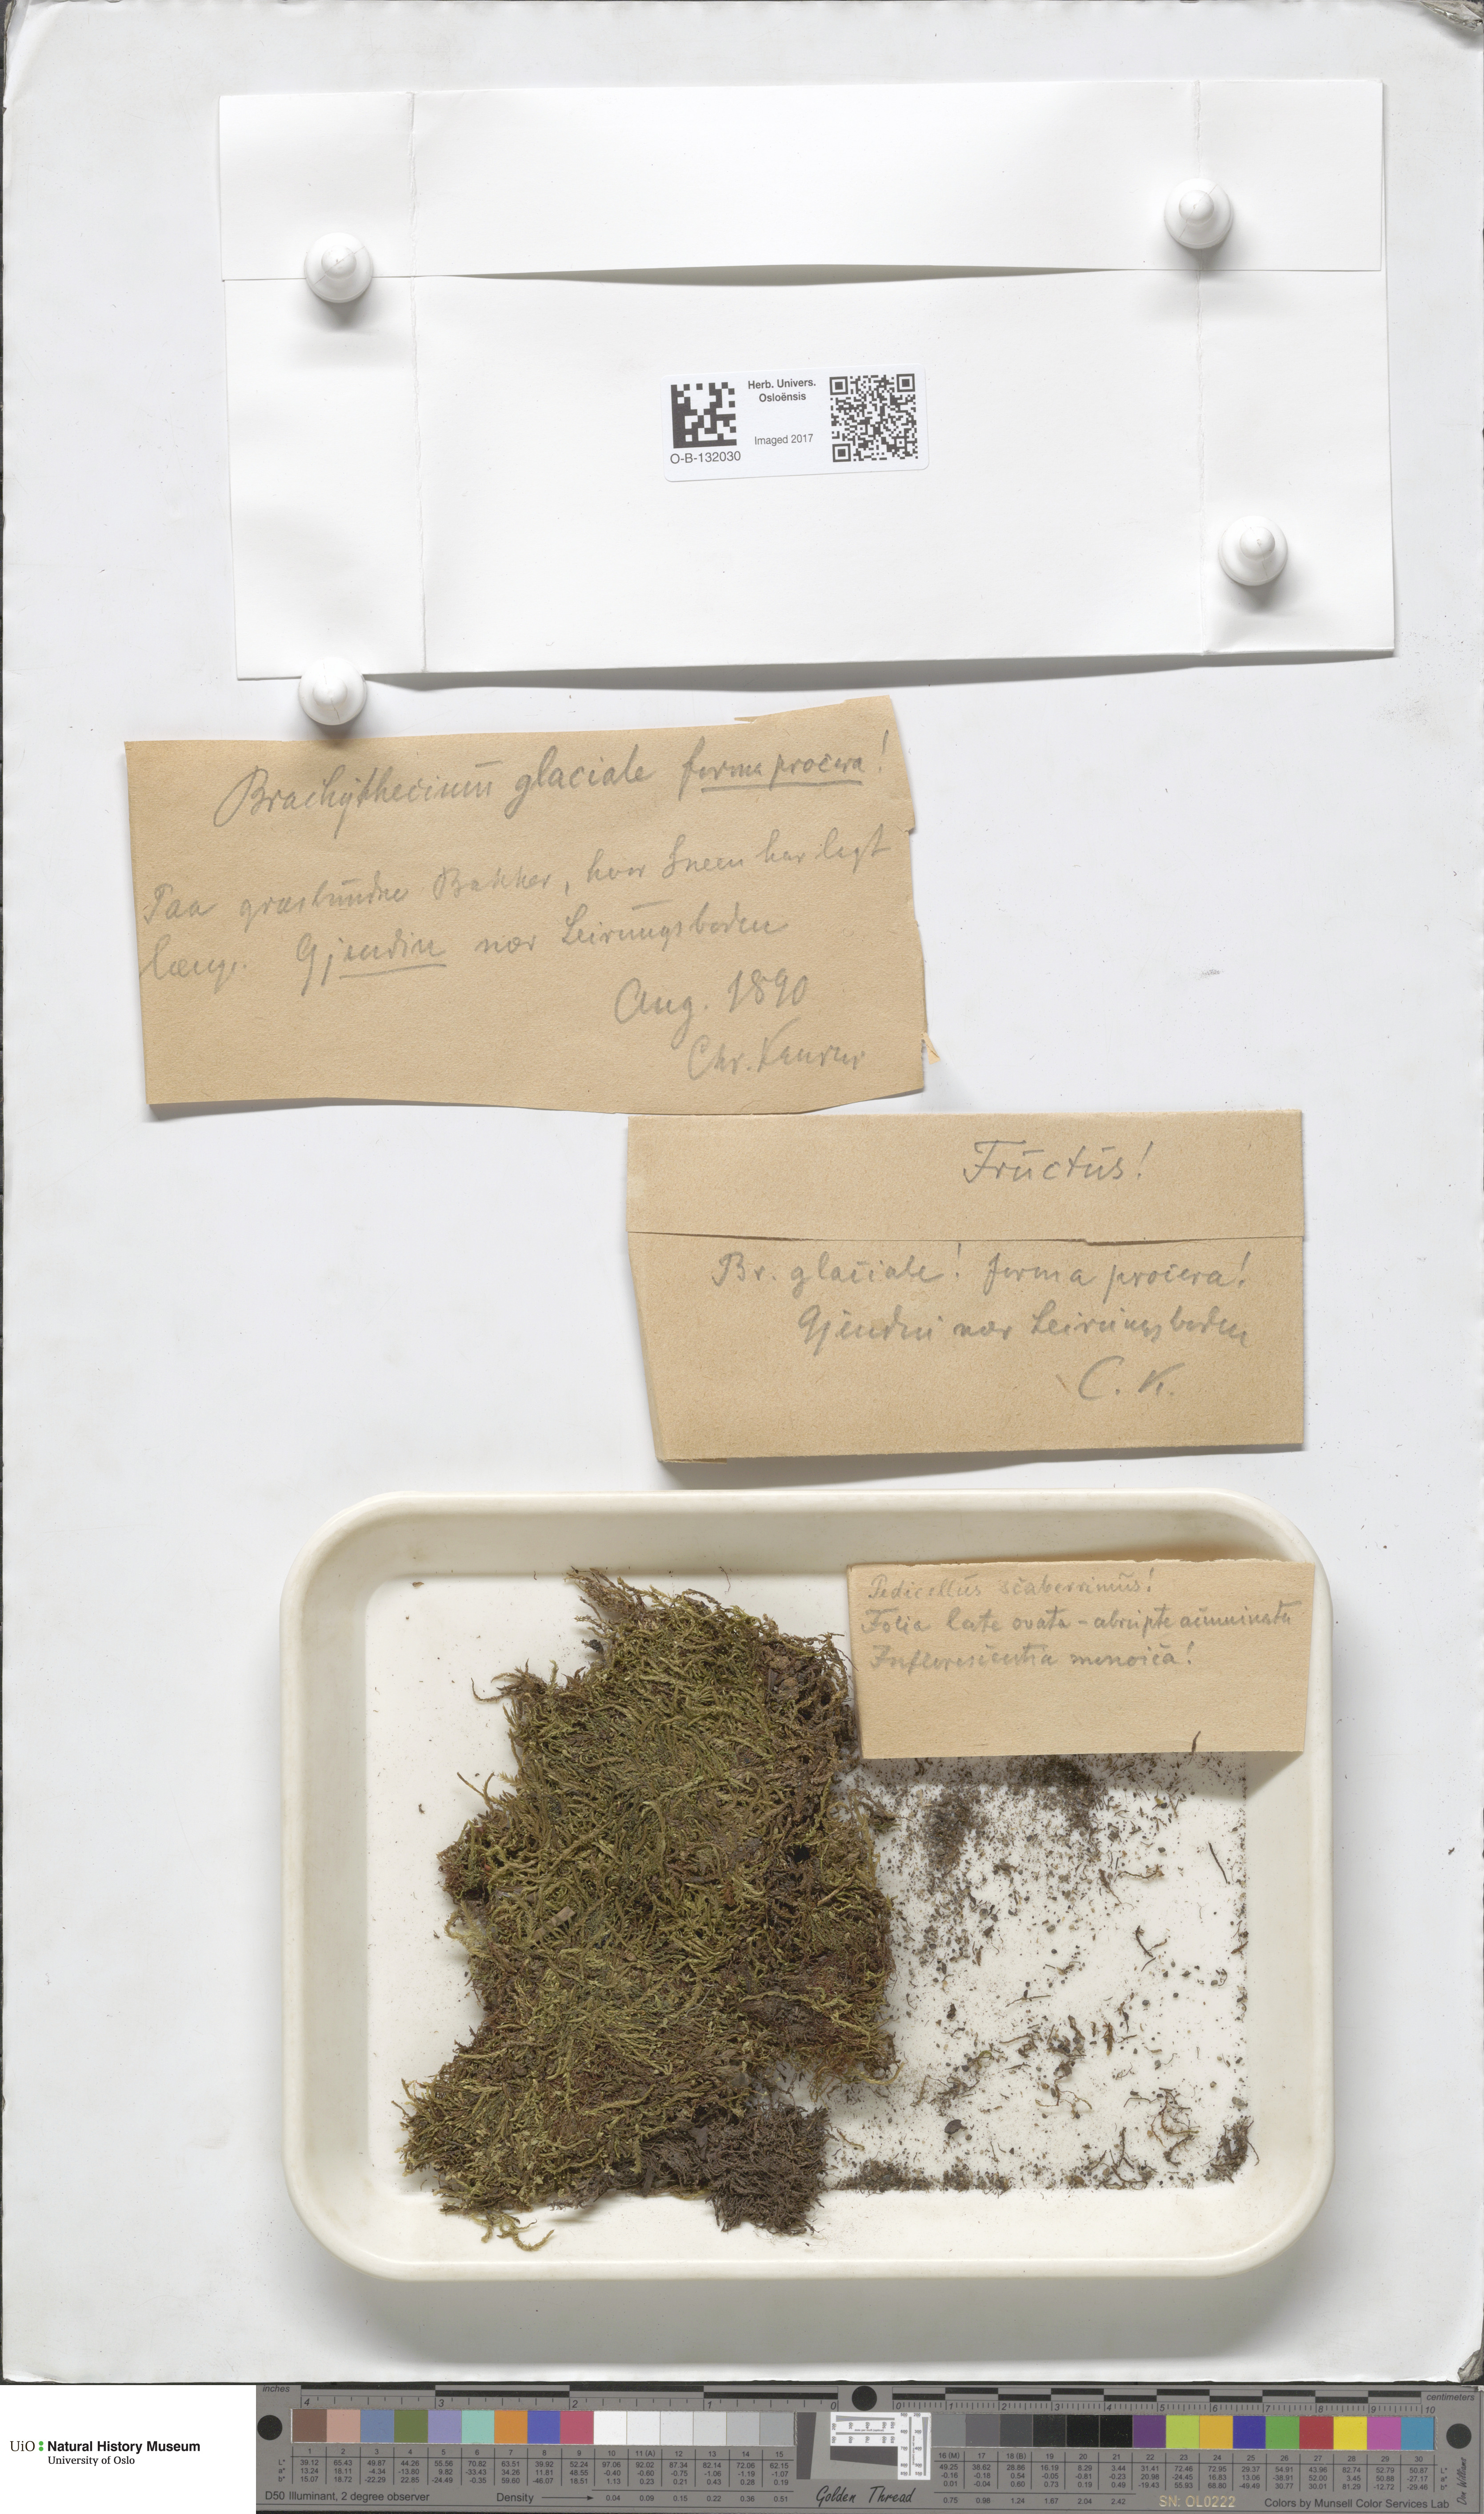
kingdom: Plantae
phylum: Bryophyta
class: Bryopsida
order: Hypnales
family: Brachytheciaceae
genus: Brachythecium
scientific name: Brachythecium erythrorrhizon
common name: Taiga ragged moss
